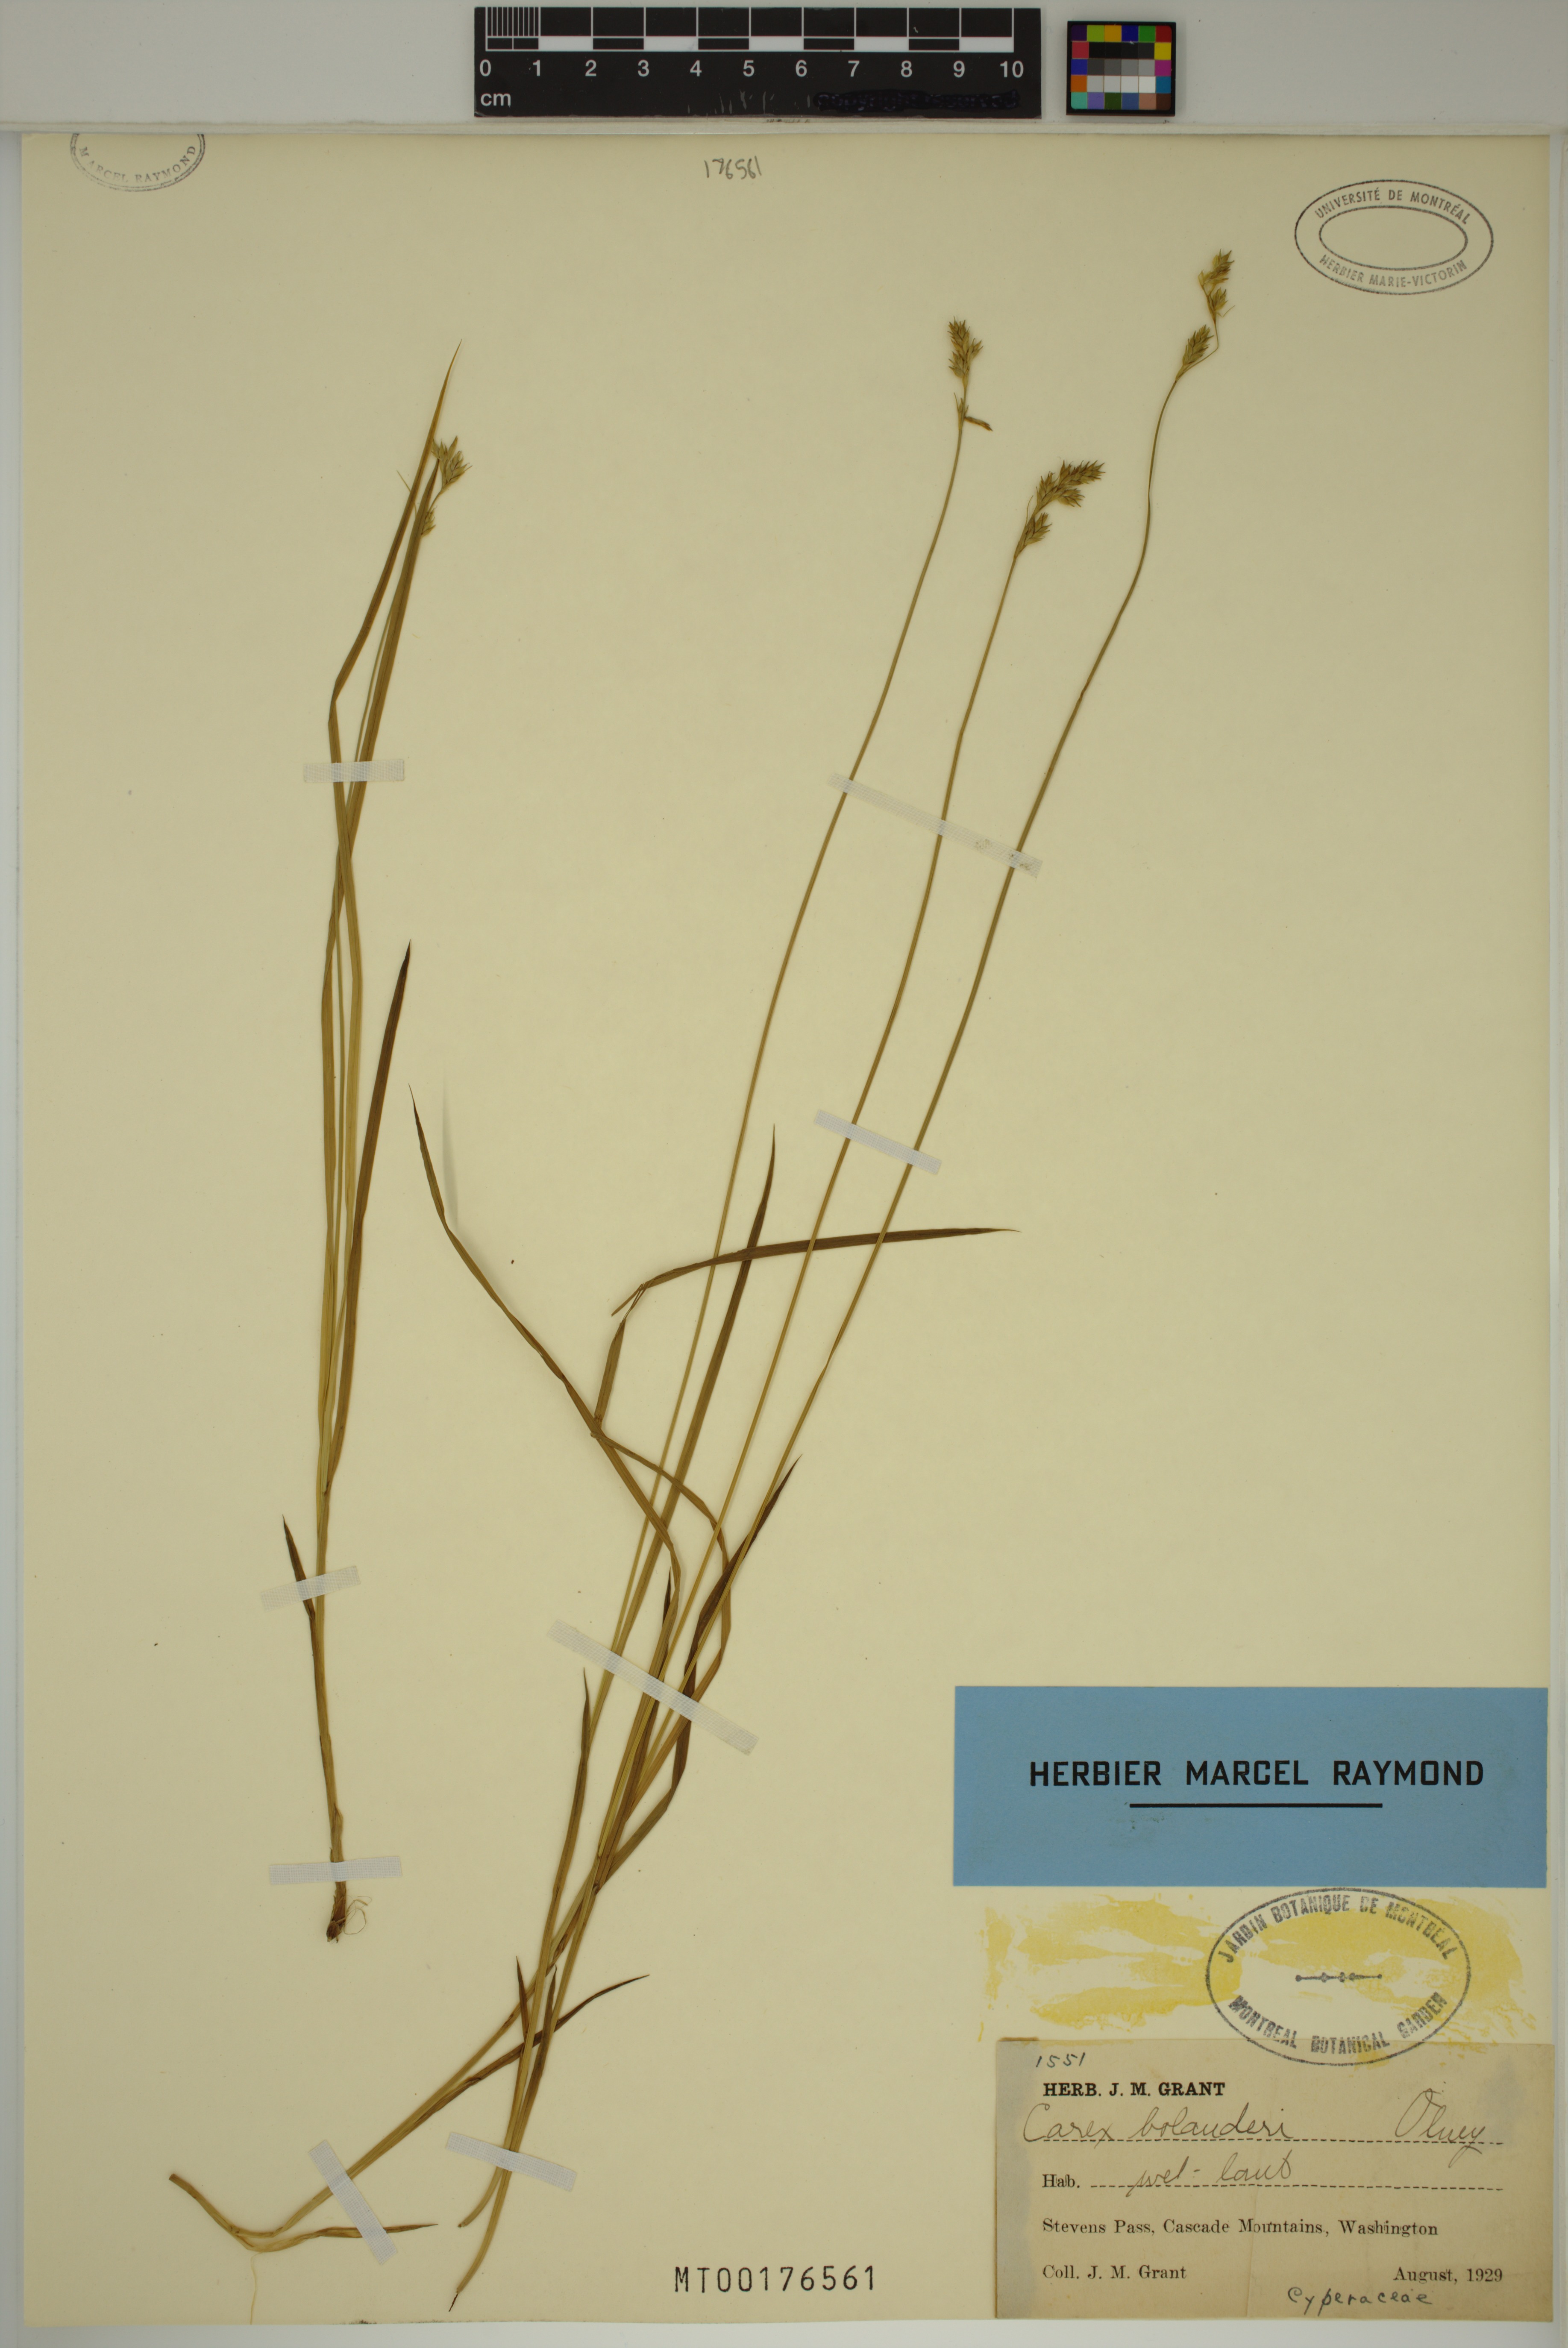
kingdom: Plantae
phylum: Tracheophyta
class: Liliopsida
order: Poales
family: Cyperaceae
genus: Carex
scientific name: Carex bolanderi
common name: Bolander's sedge
